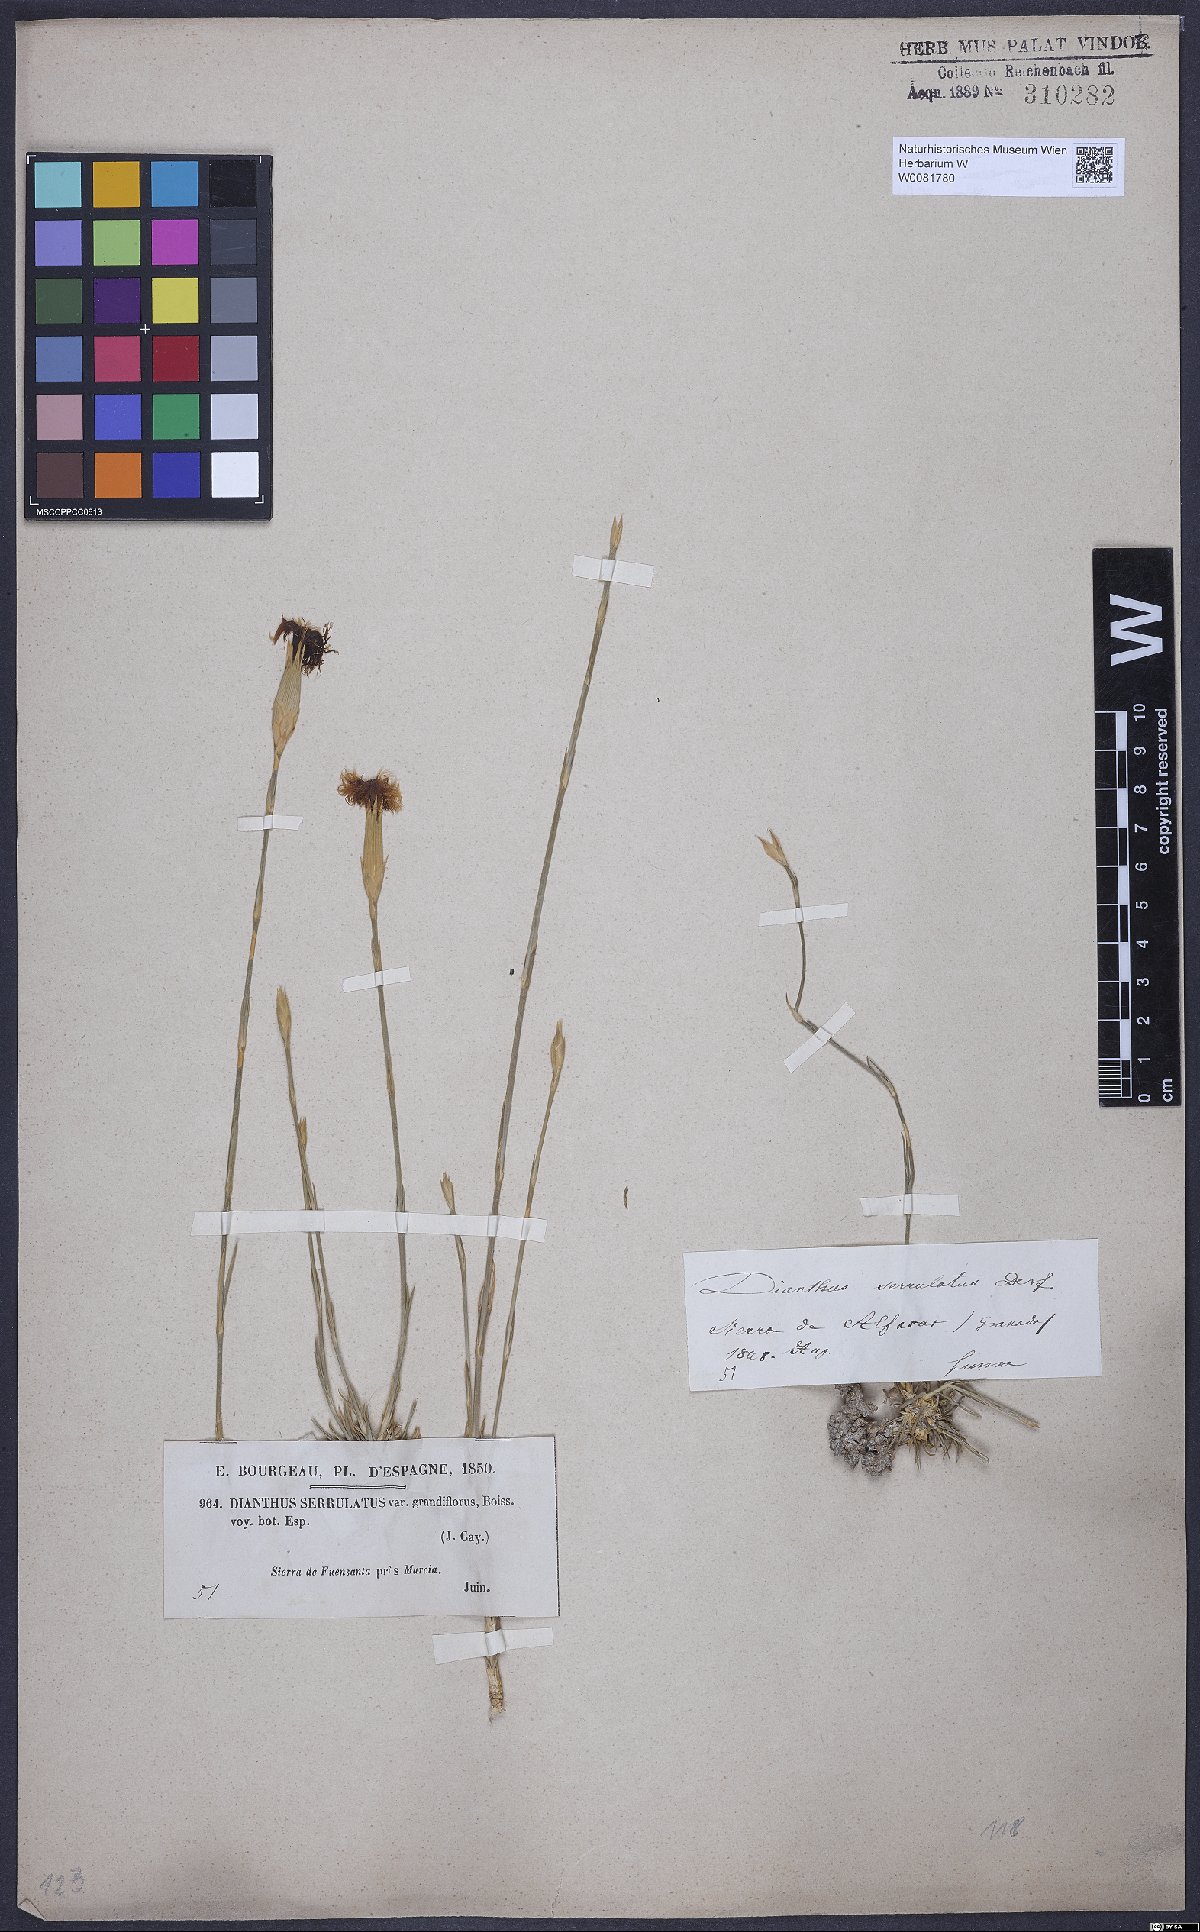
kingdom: Plantae
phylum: Tracheophyta
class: Magnoliopsida
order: Caryophyllales
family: Caryophyllaceae
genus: Dianthus
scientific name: Dianthus broteri
